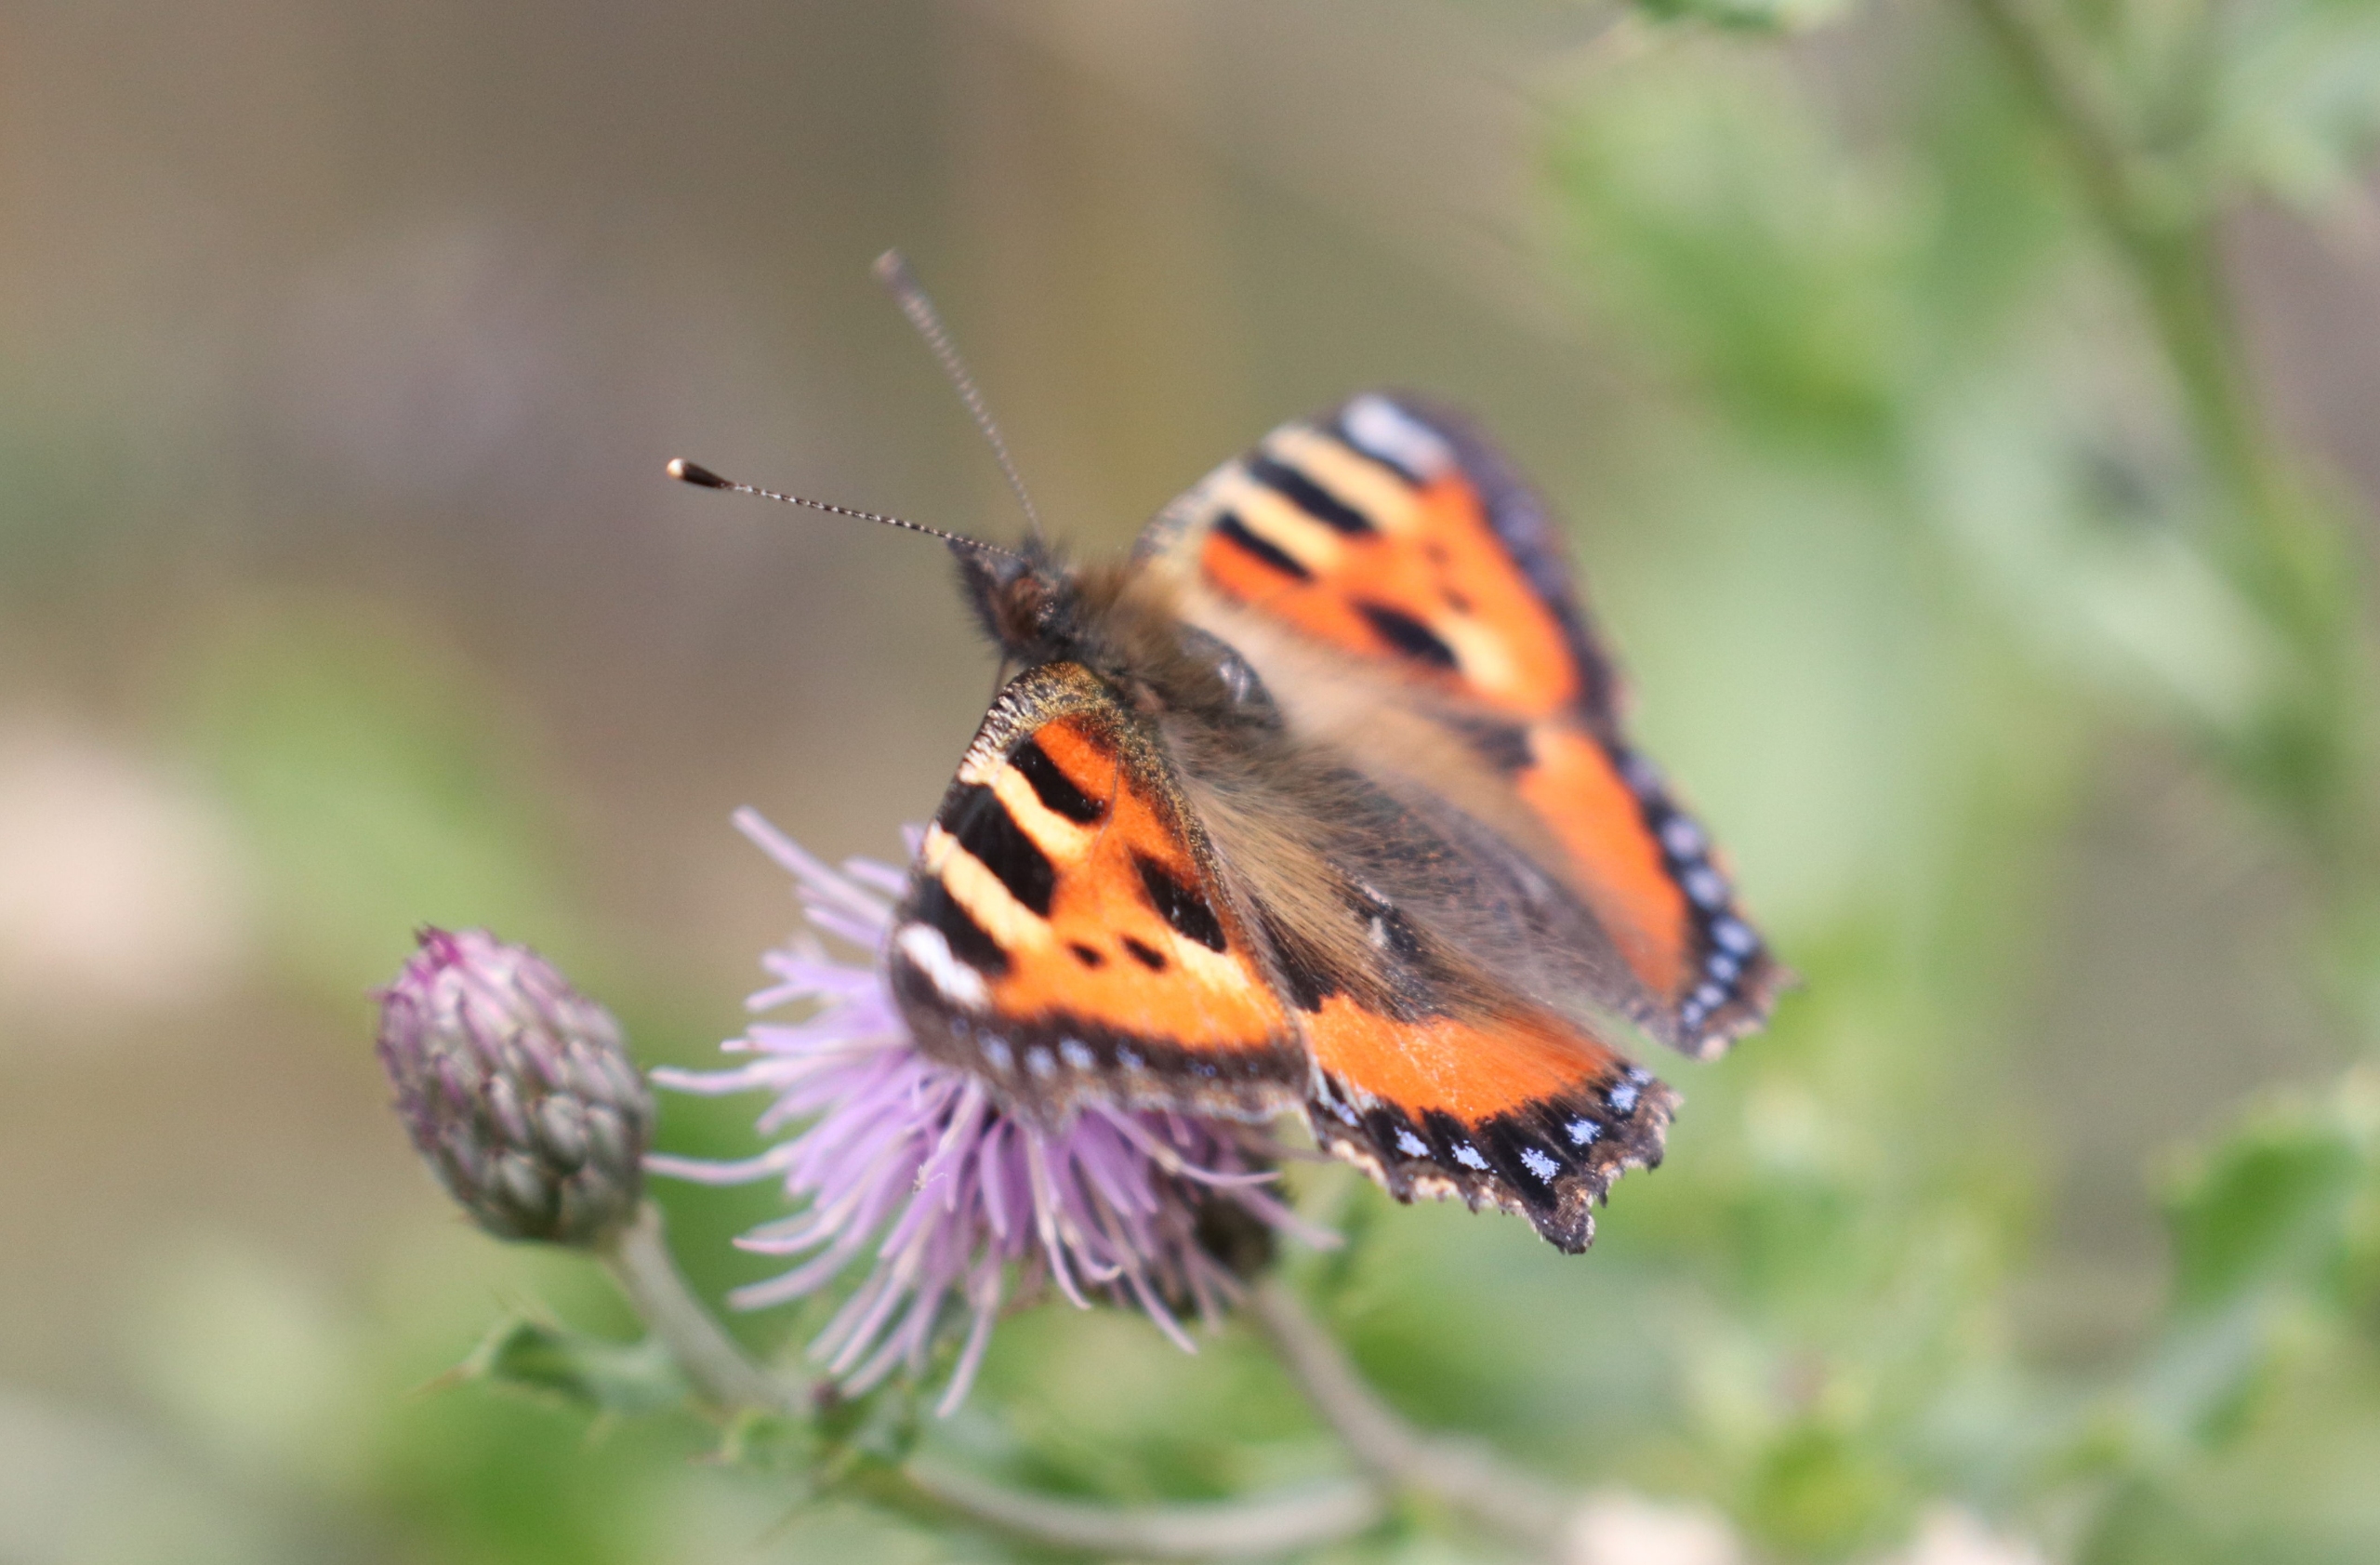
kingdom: Animalia
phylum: Arthropoda
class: Insecta
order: Lepidoptera
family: Nymphalidae
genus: Aglais
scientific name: Aglais urticae
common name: Nældens takvinge
